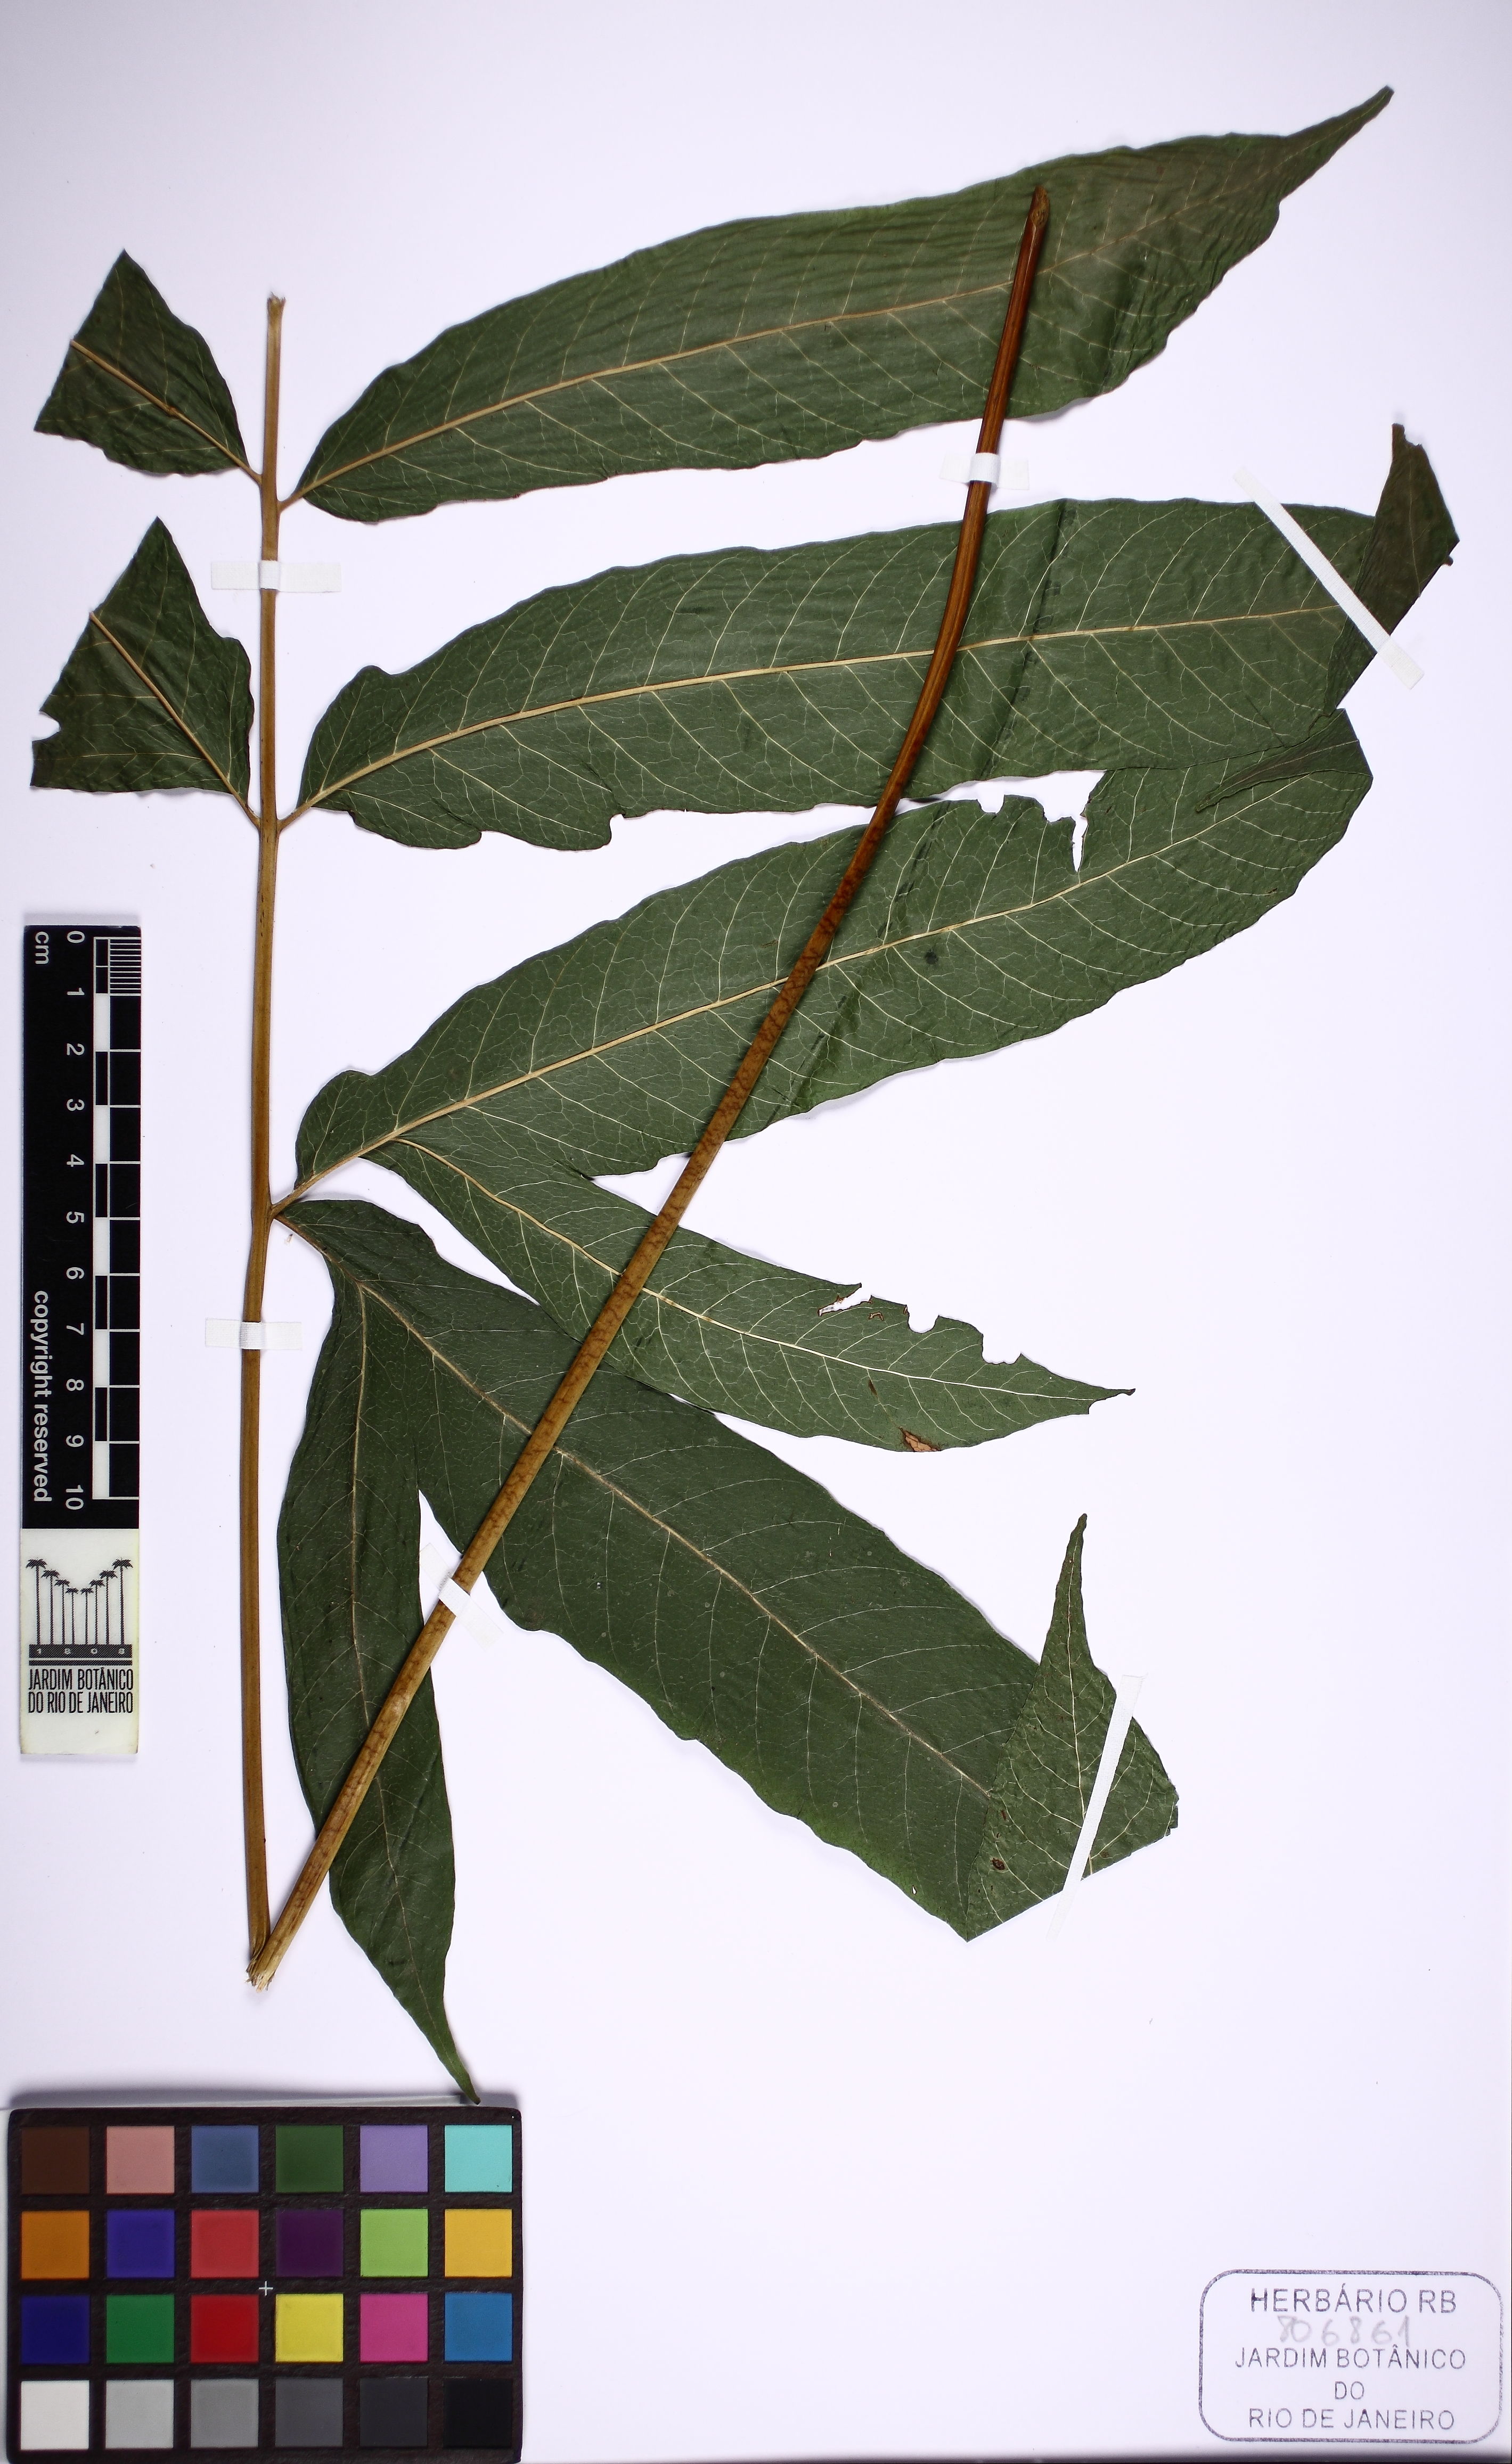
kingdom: Plantae
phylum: Tracheophyta
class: Polypodiopsida
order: Polypodiales
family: Tectariaceae
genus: Tectaria
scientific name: Tectaria incisa
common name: Incised halberd fern
